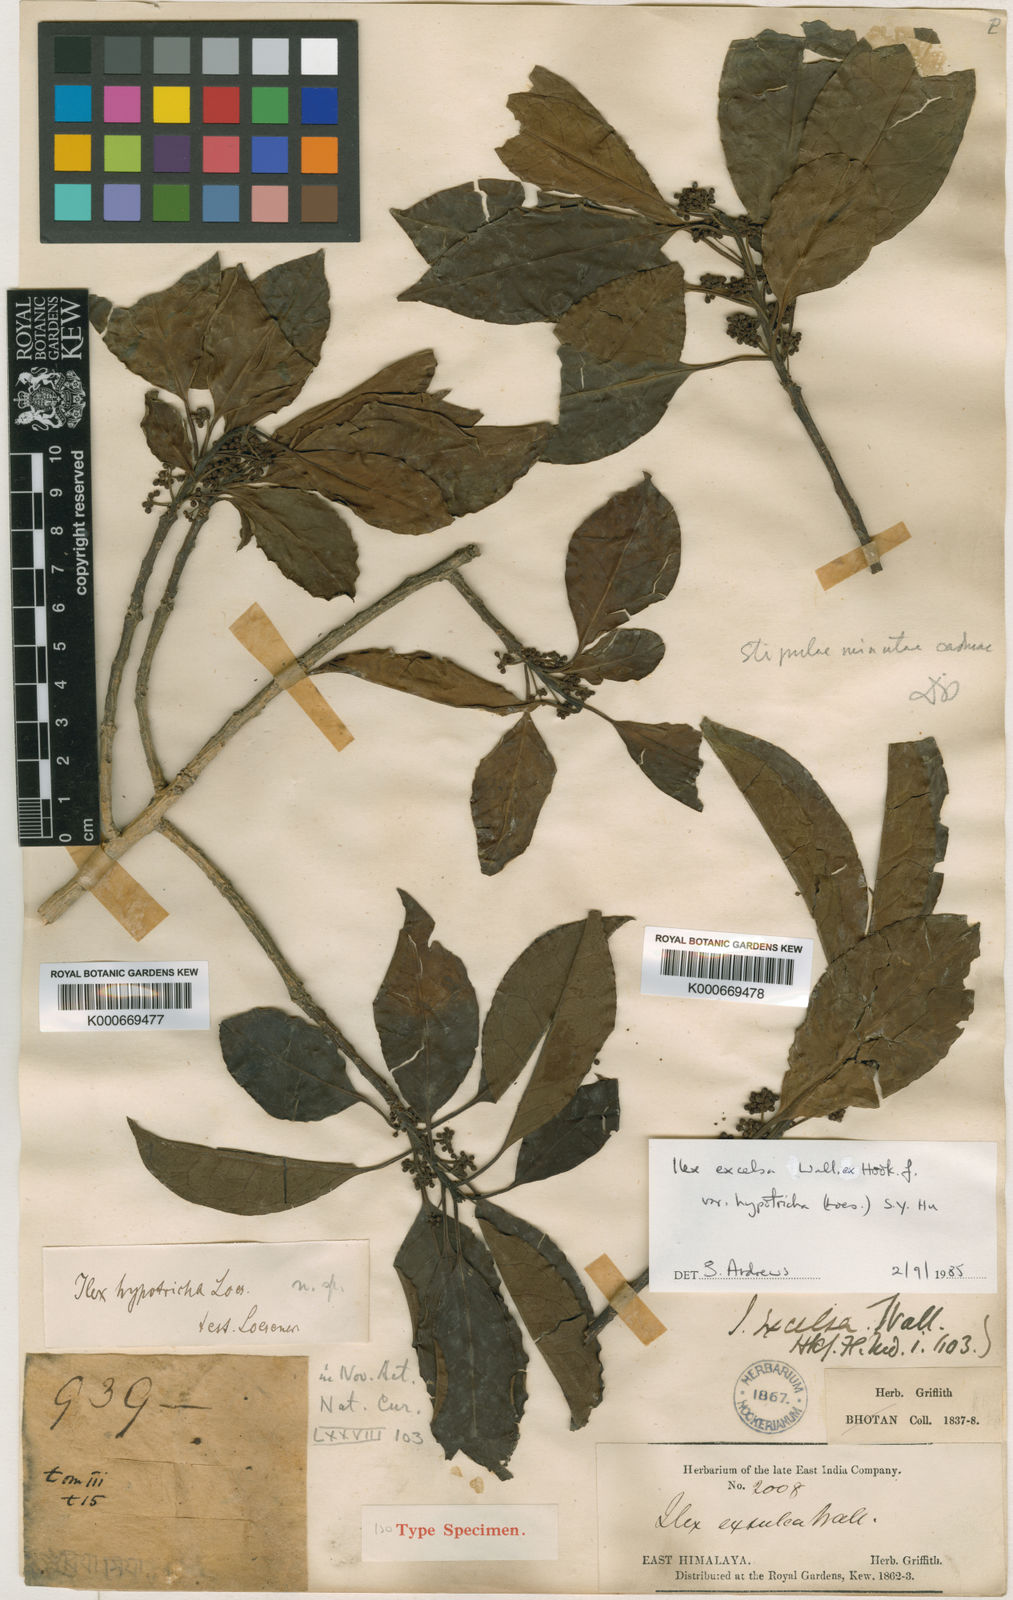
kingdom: Plantae
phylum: Tracheophyta
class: Magnoliopsida
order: Aquifoliales
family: Aquifoliaceae
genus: Ilex
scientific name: Ilex excelsa
